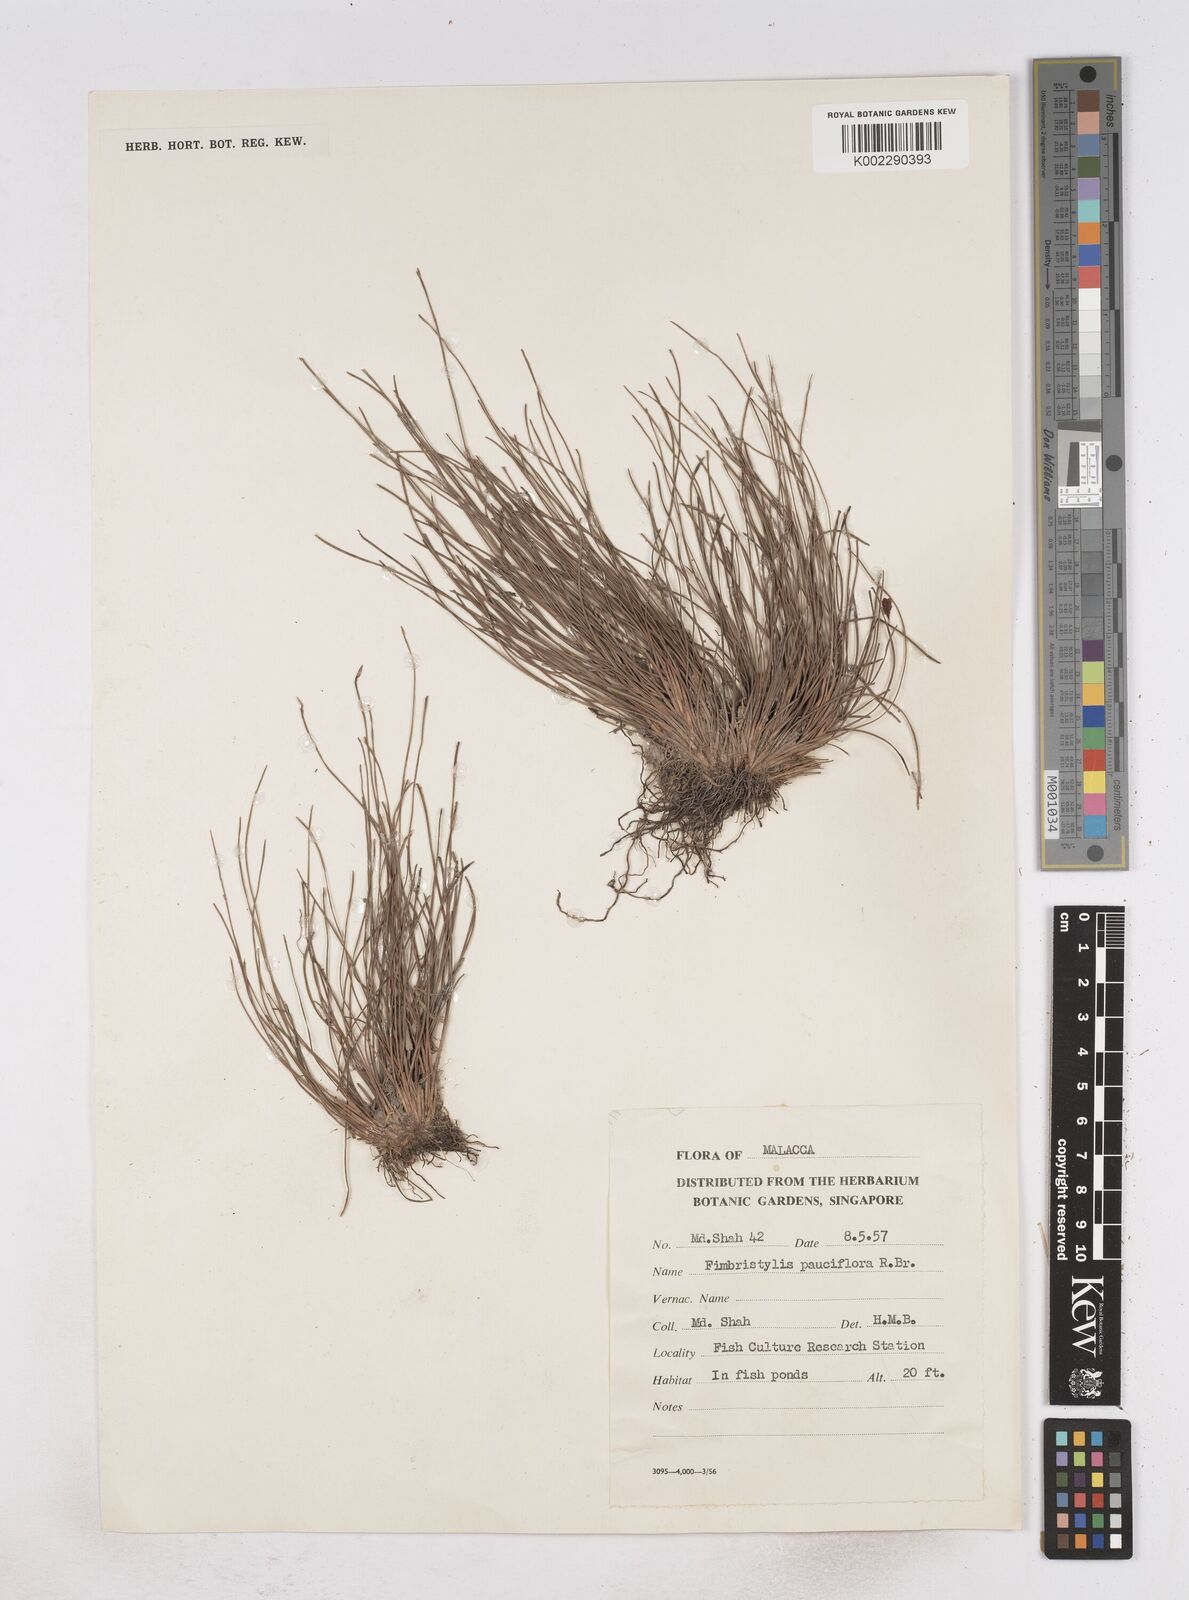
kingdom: Plantae
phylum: Tracheophyta
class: Liliopsida
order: Poales
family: Cyperaceae
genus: Fimbristylis
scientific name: Fimbristylis pauciflora
